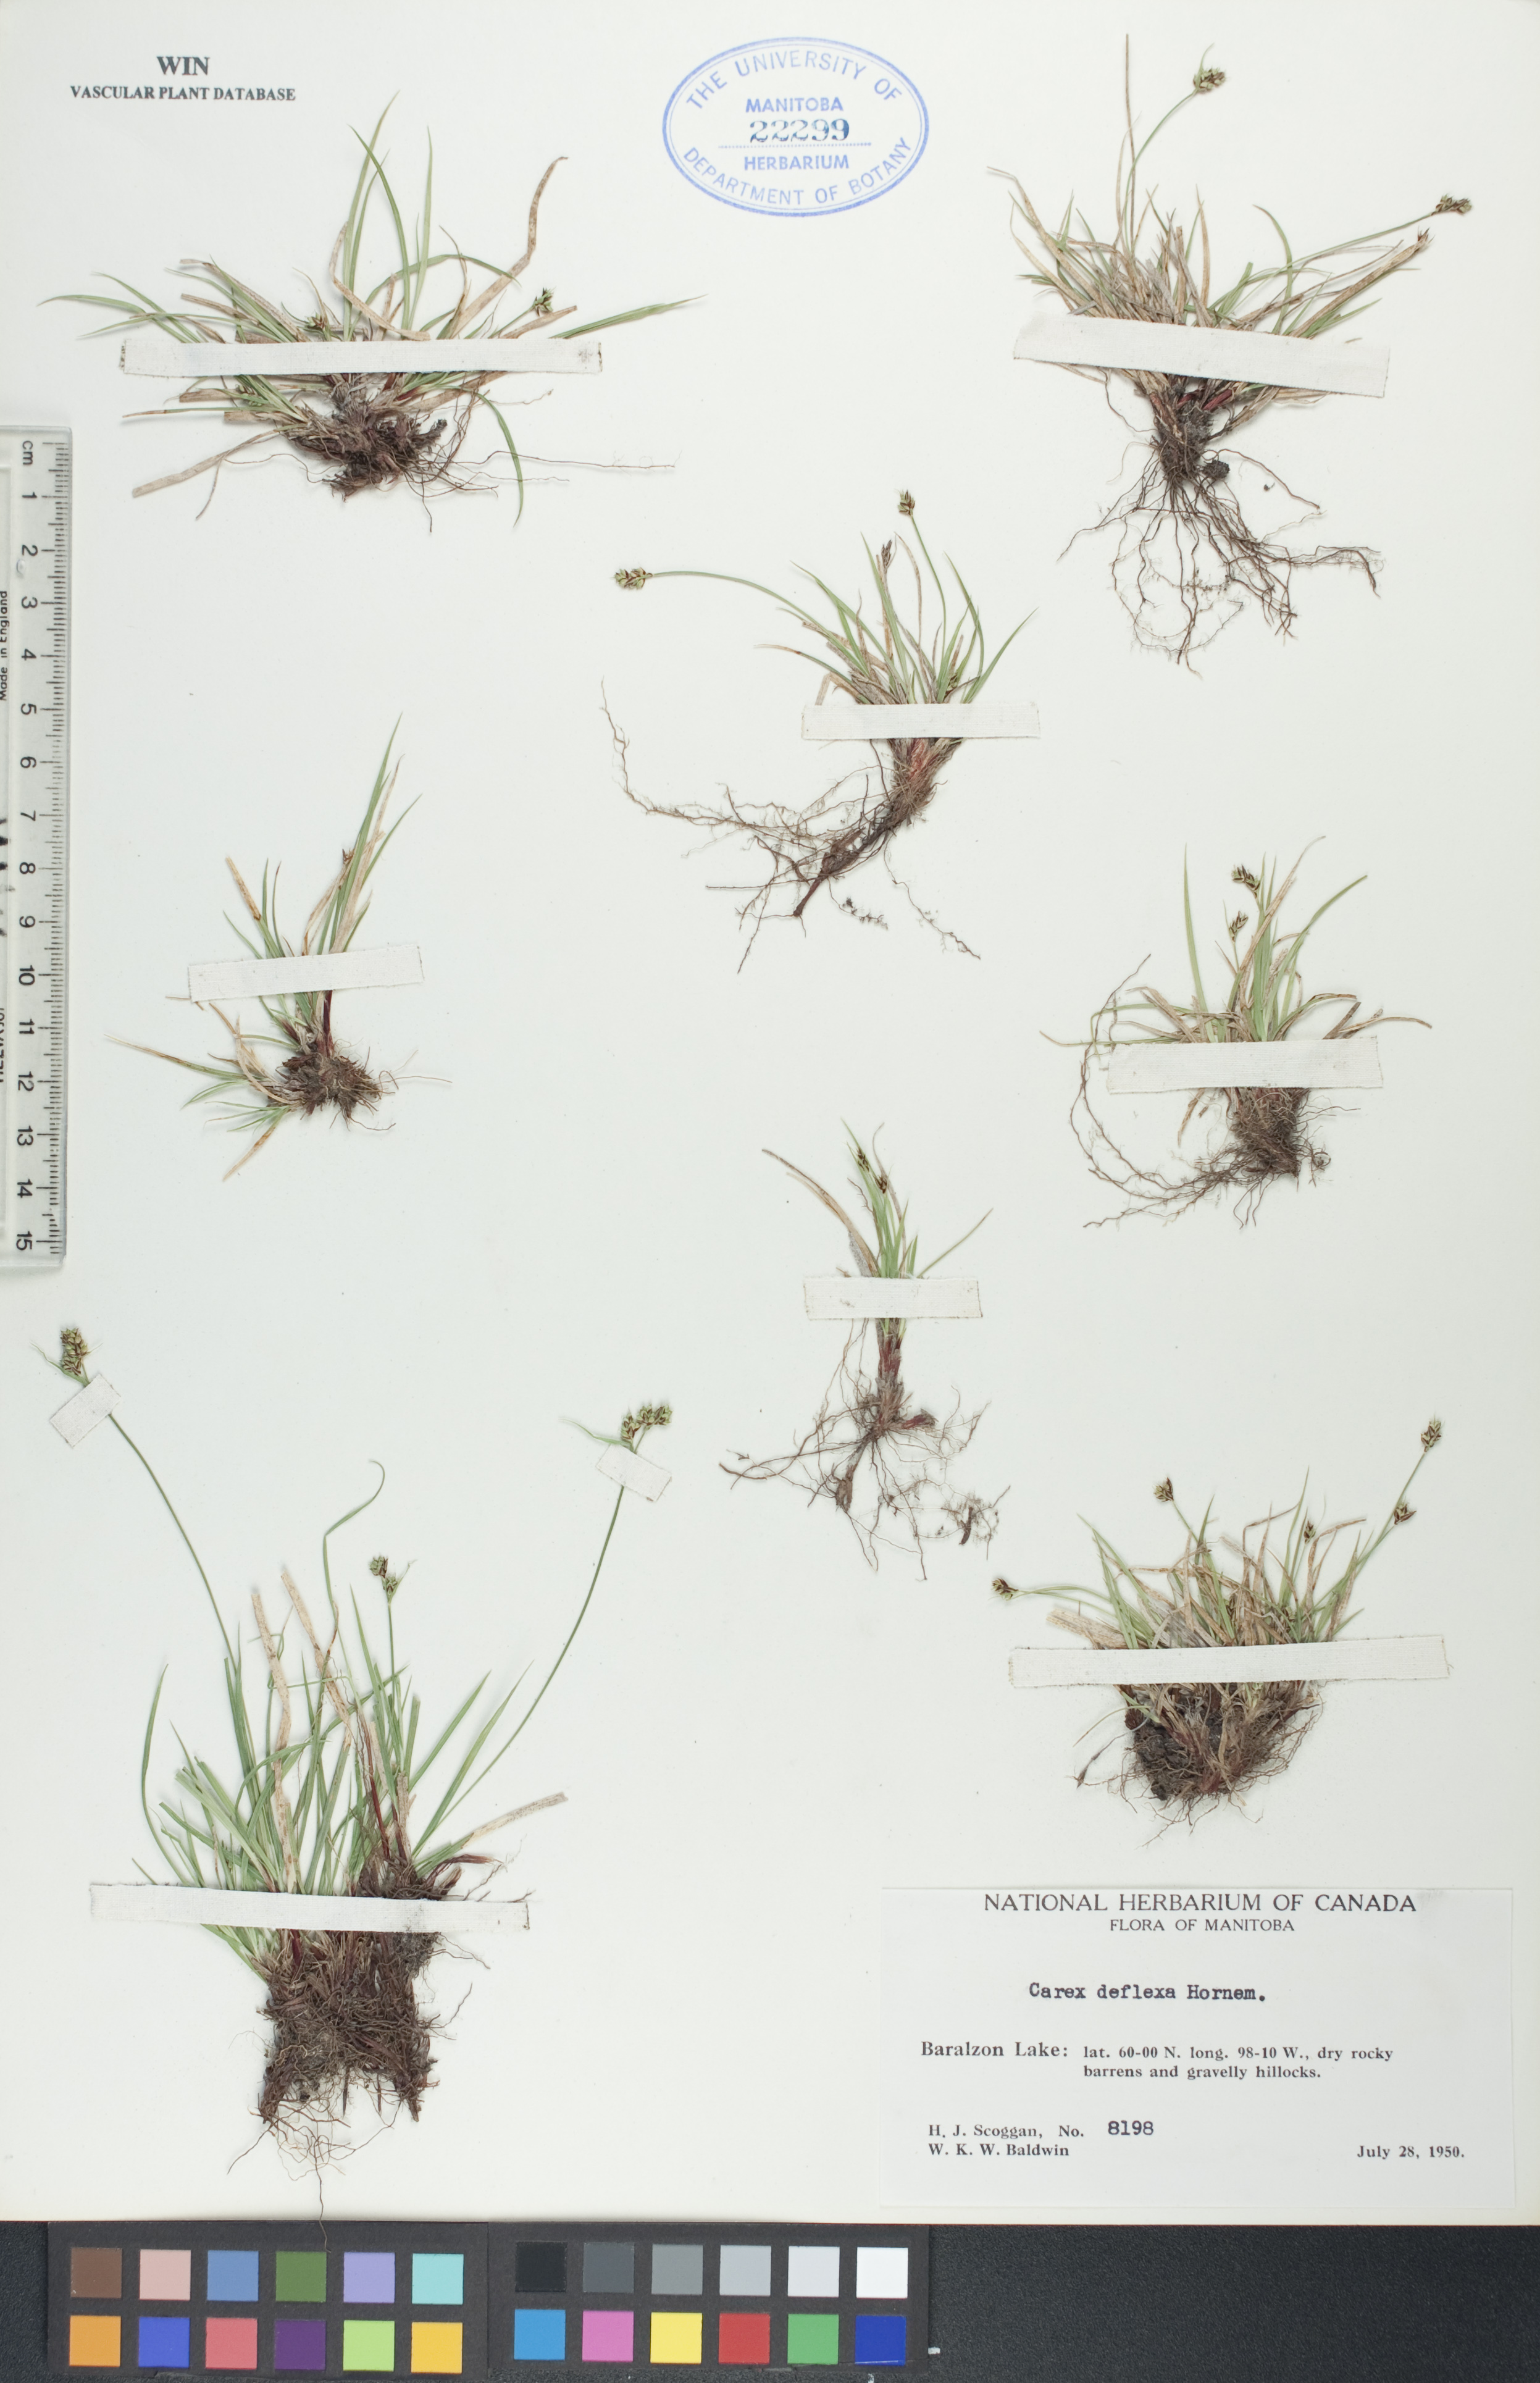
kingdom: Plantae
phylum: Tracheophyta
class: Liliopsida
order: Poales
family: Cyperaceae
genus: Carex
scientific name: Carex deflexa
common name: Bent northern sedge
